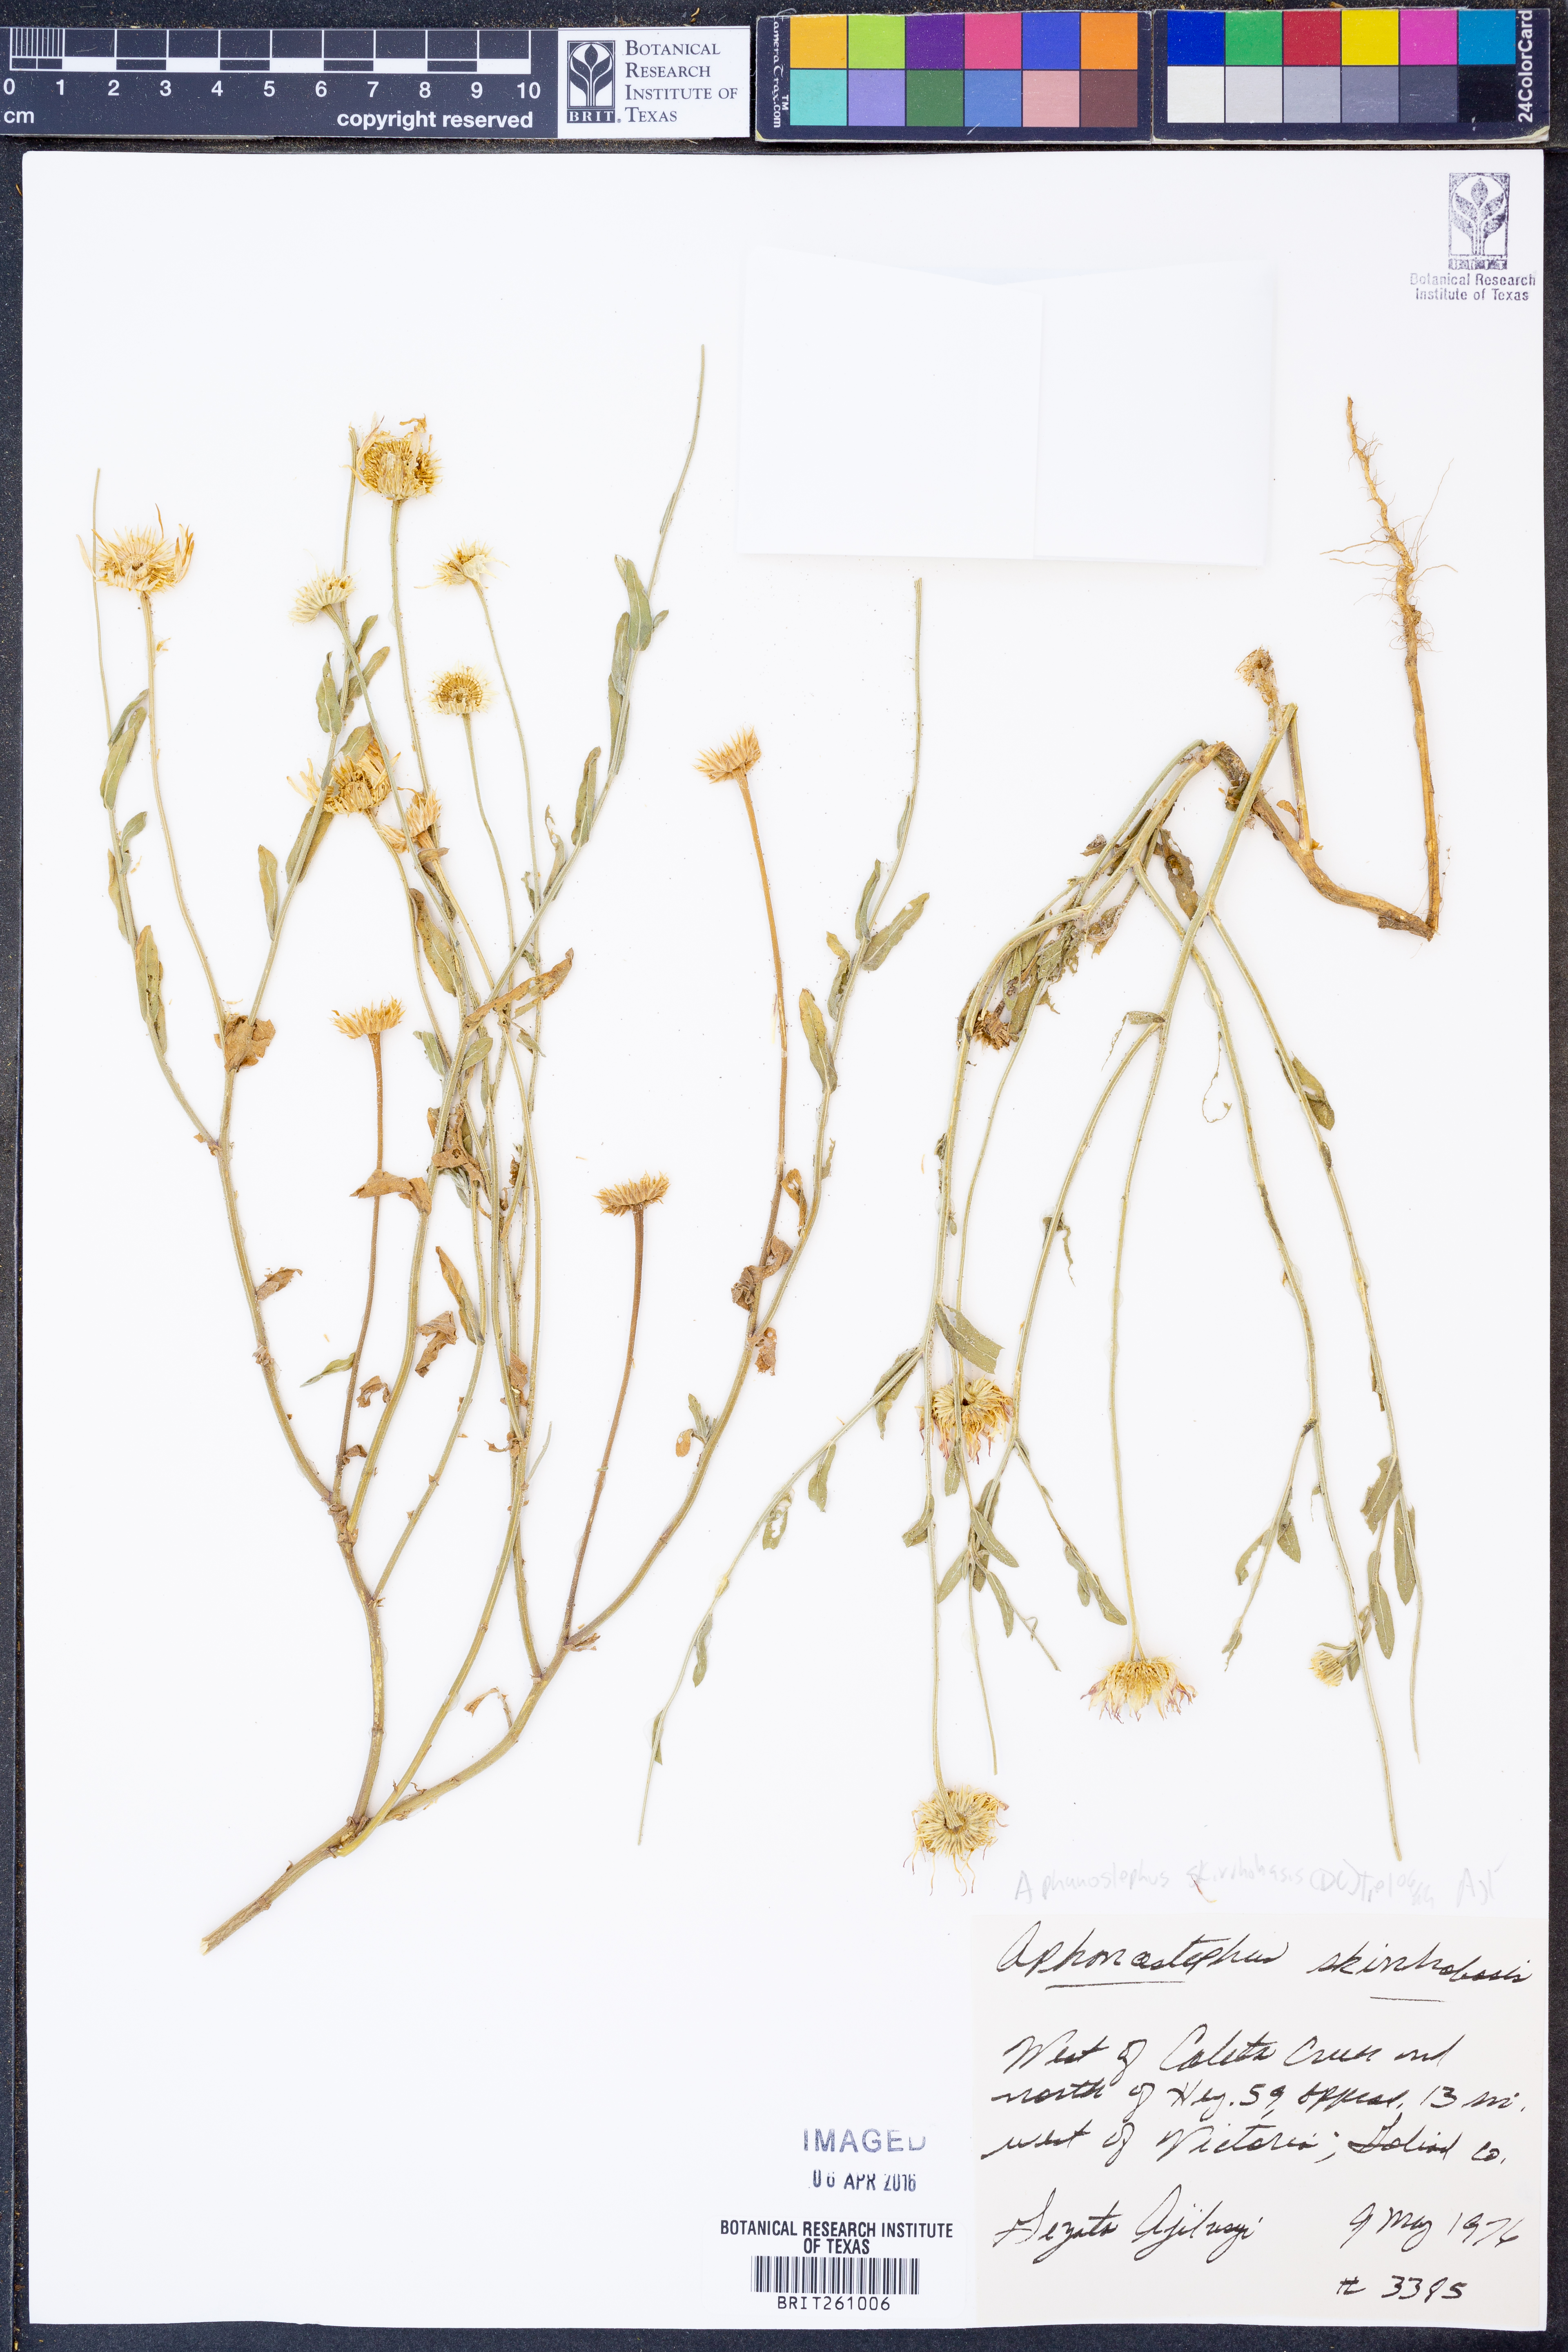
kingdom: Plantae
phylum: Tracheophyta
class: Magnoliopsida
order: Asterales
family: Asteraceae
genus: Aphanostephus
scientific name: Aphanostephus skirrhobasis
